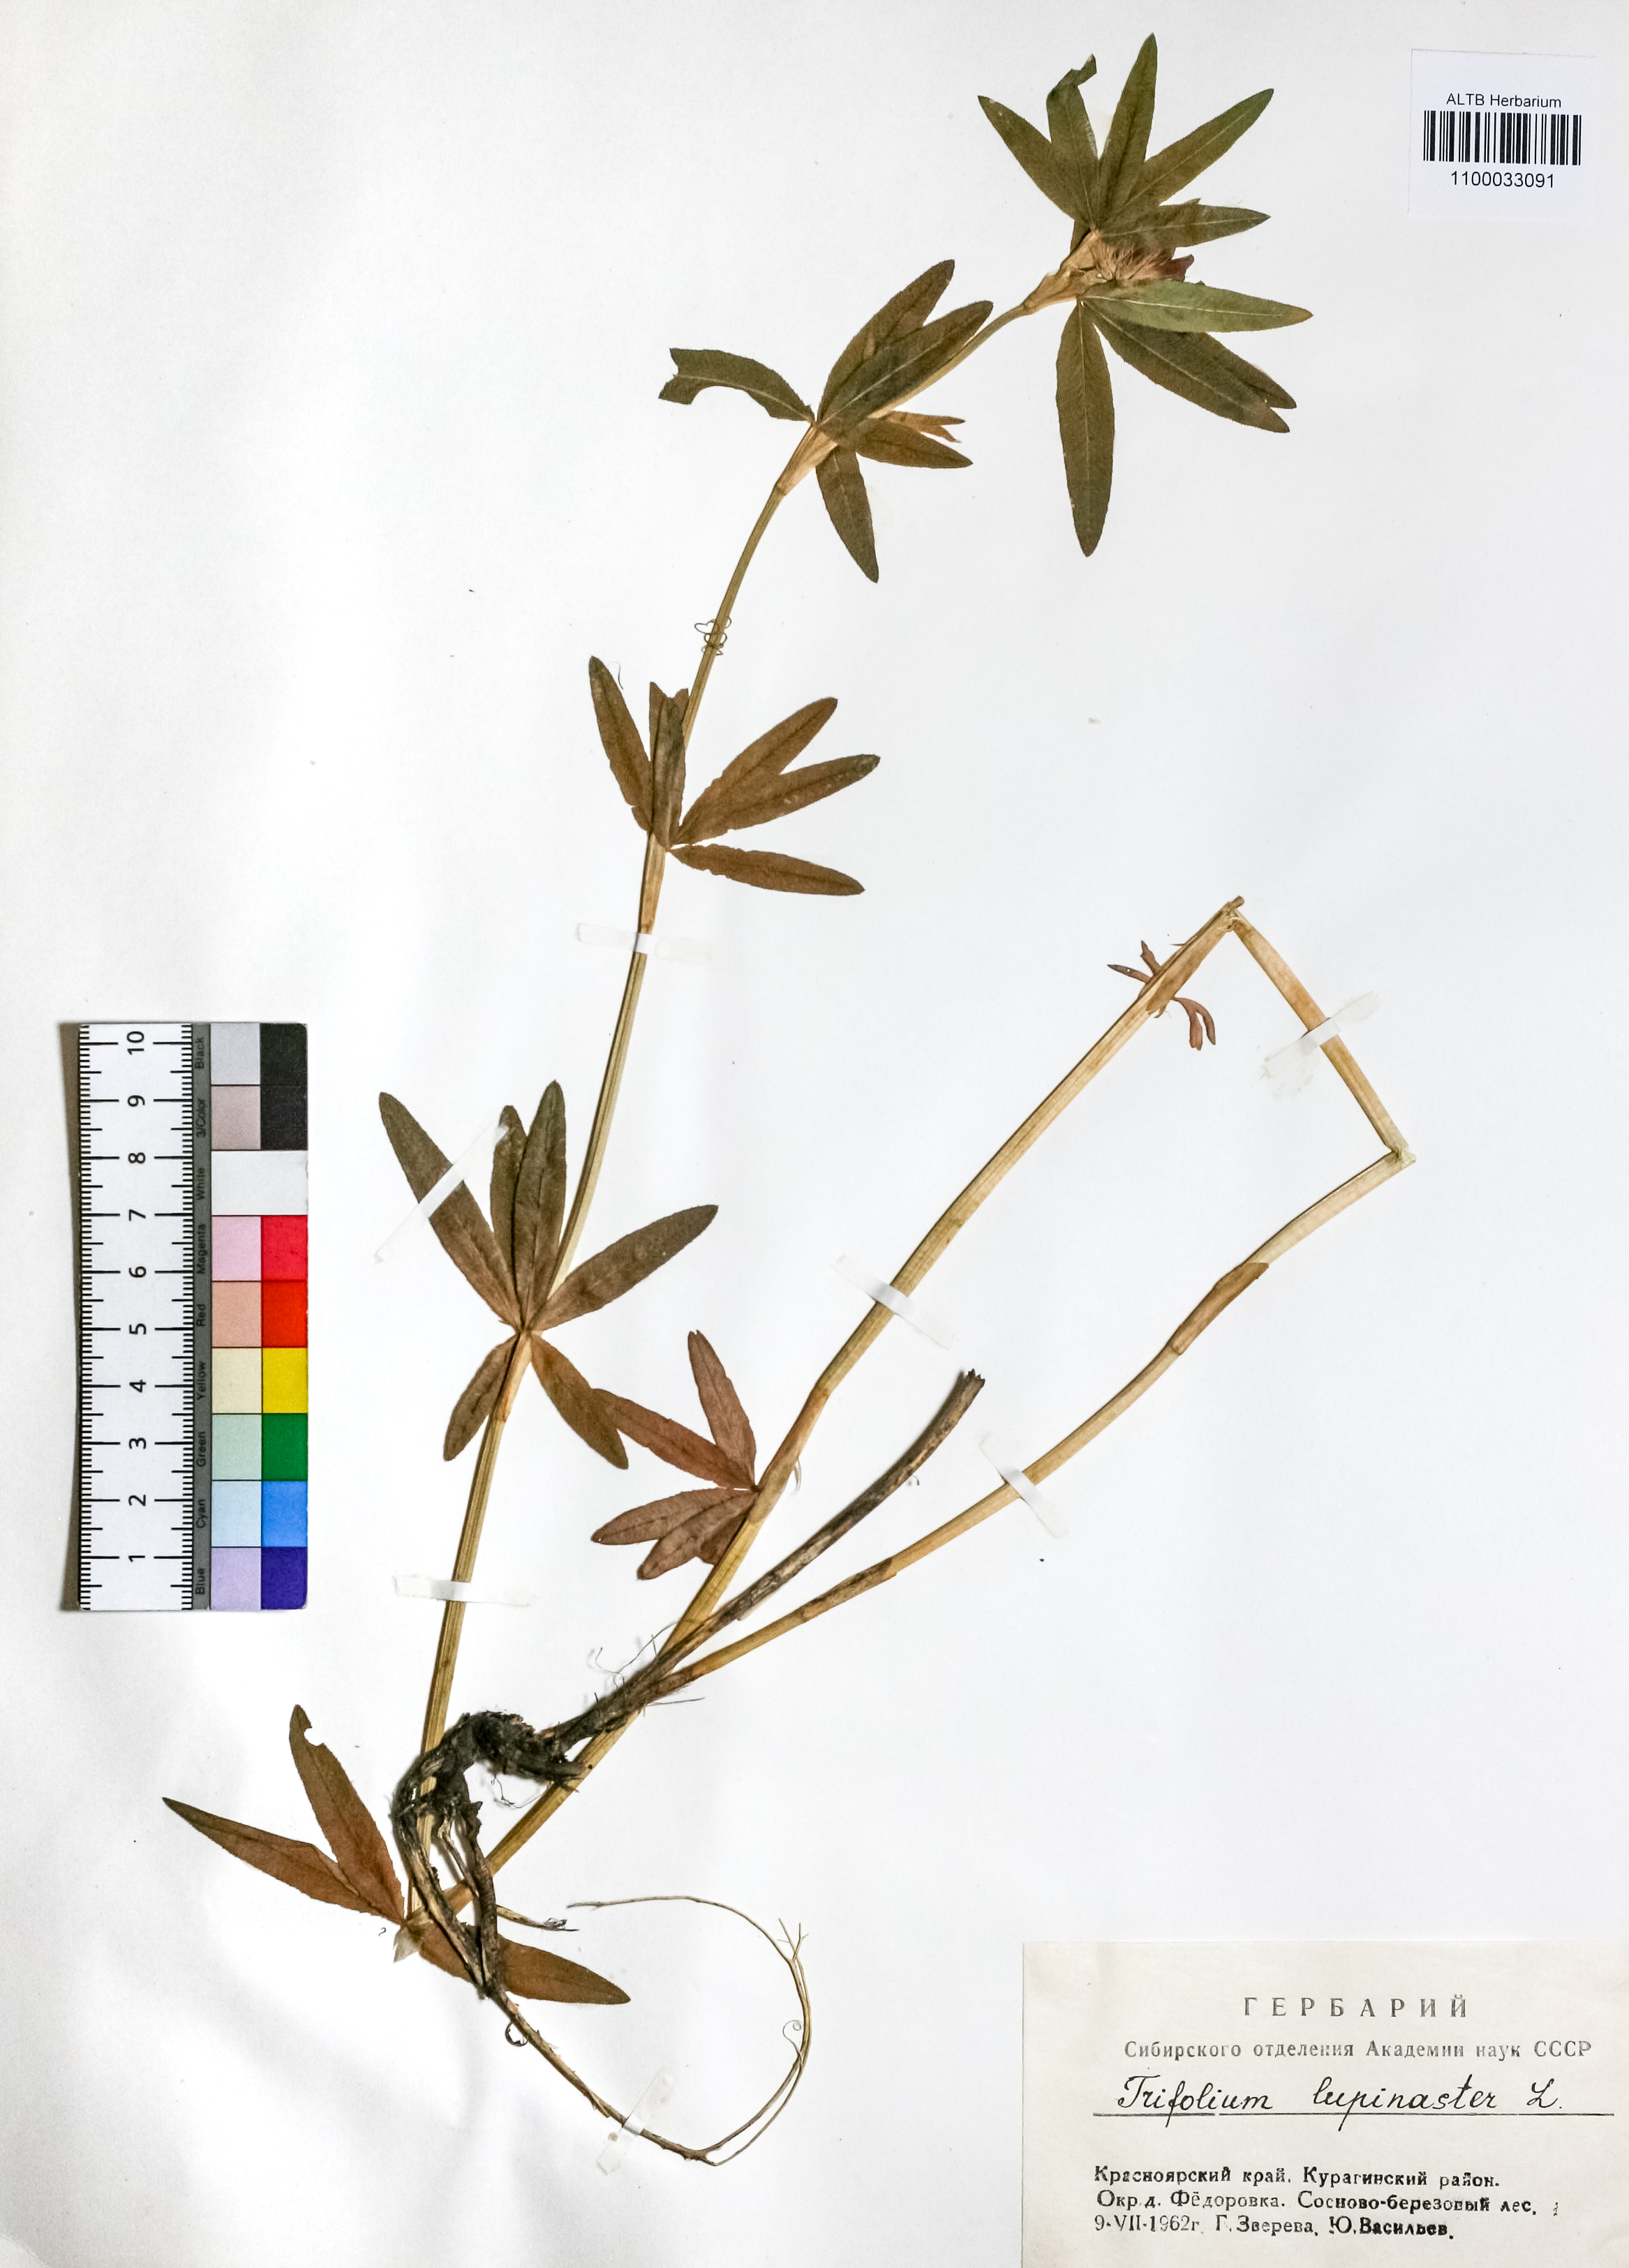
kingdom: Plantae
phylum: Tracheophyta
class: Magnoliopsida
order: Fabales
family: Fabaceae
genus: Trifolium
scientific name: Trifolium lupinaster
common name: Lupine clover
